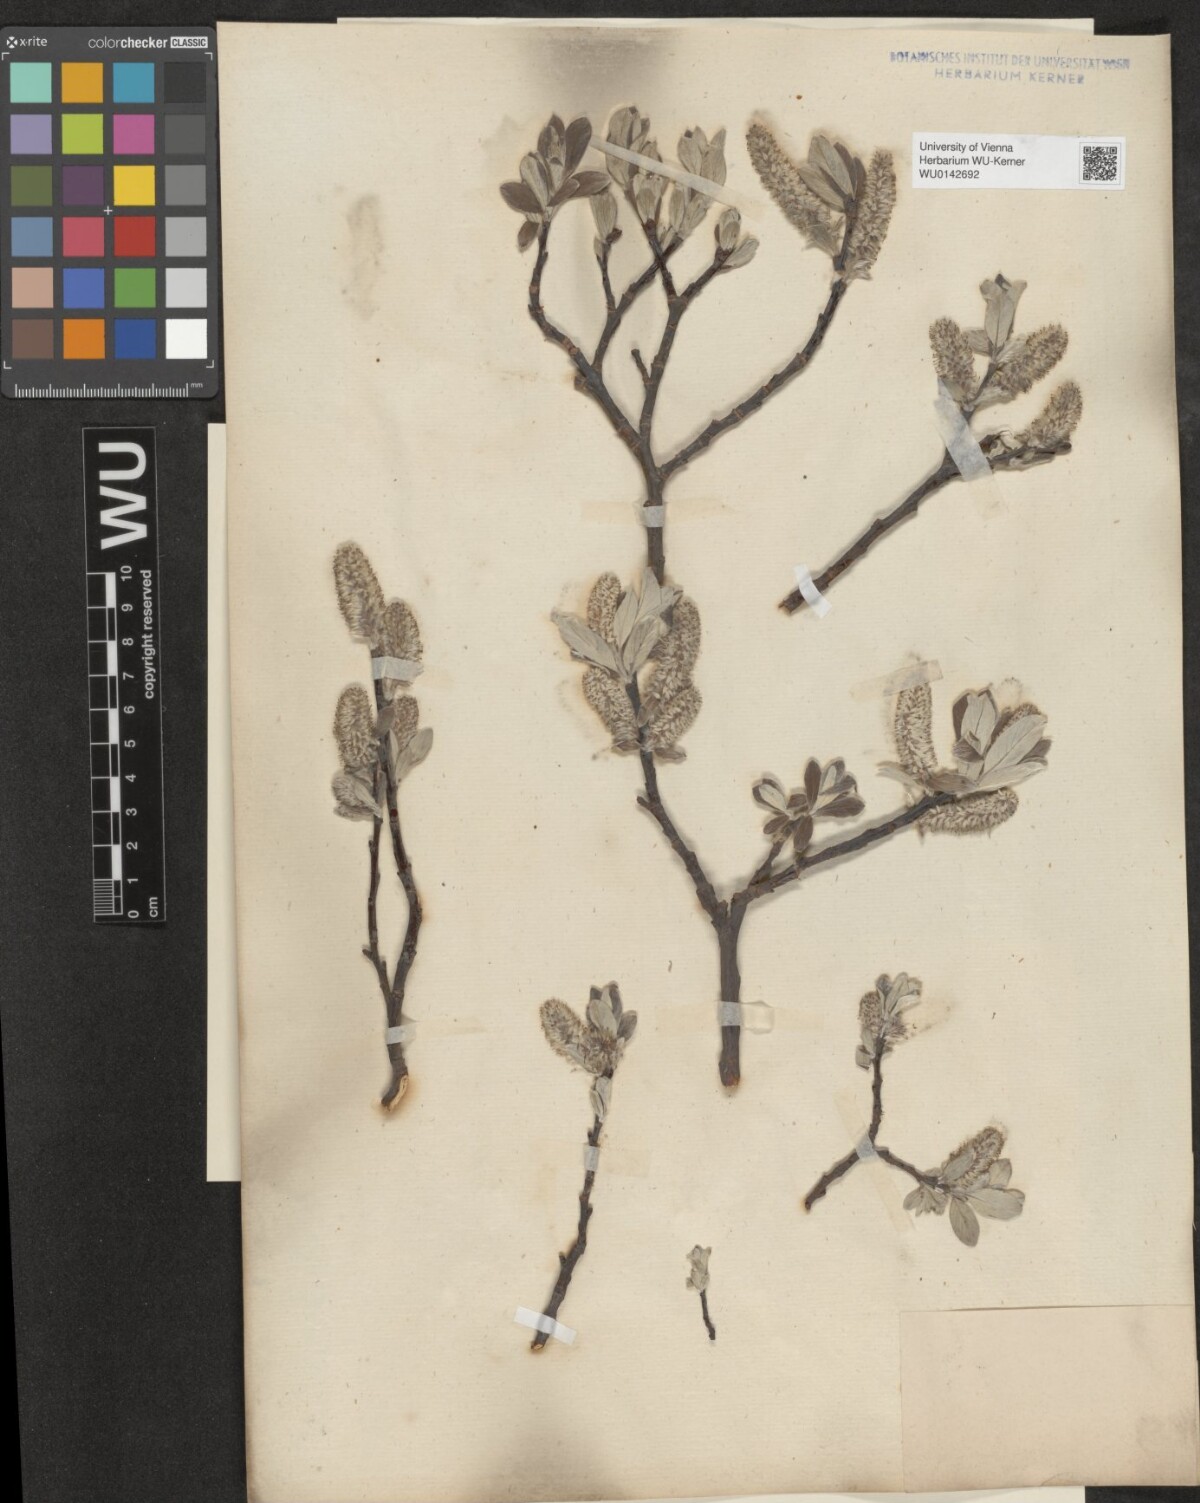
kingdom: Plantae
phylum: Tracheophyta
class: Magnoliopsida
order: Malpighiales
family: Salicaceae
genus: Salix
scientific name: Salix helvetica
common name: Swiss willow
